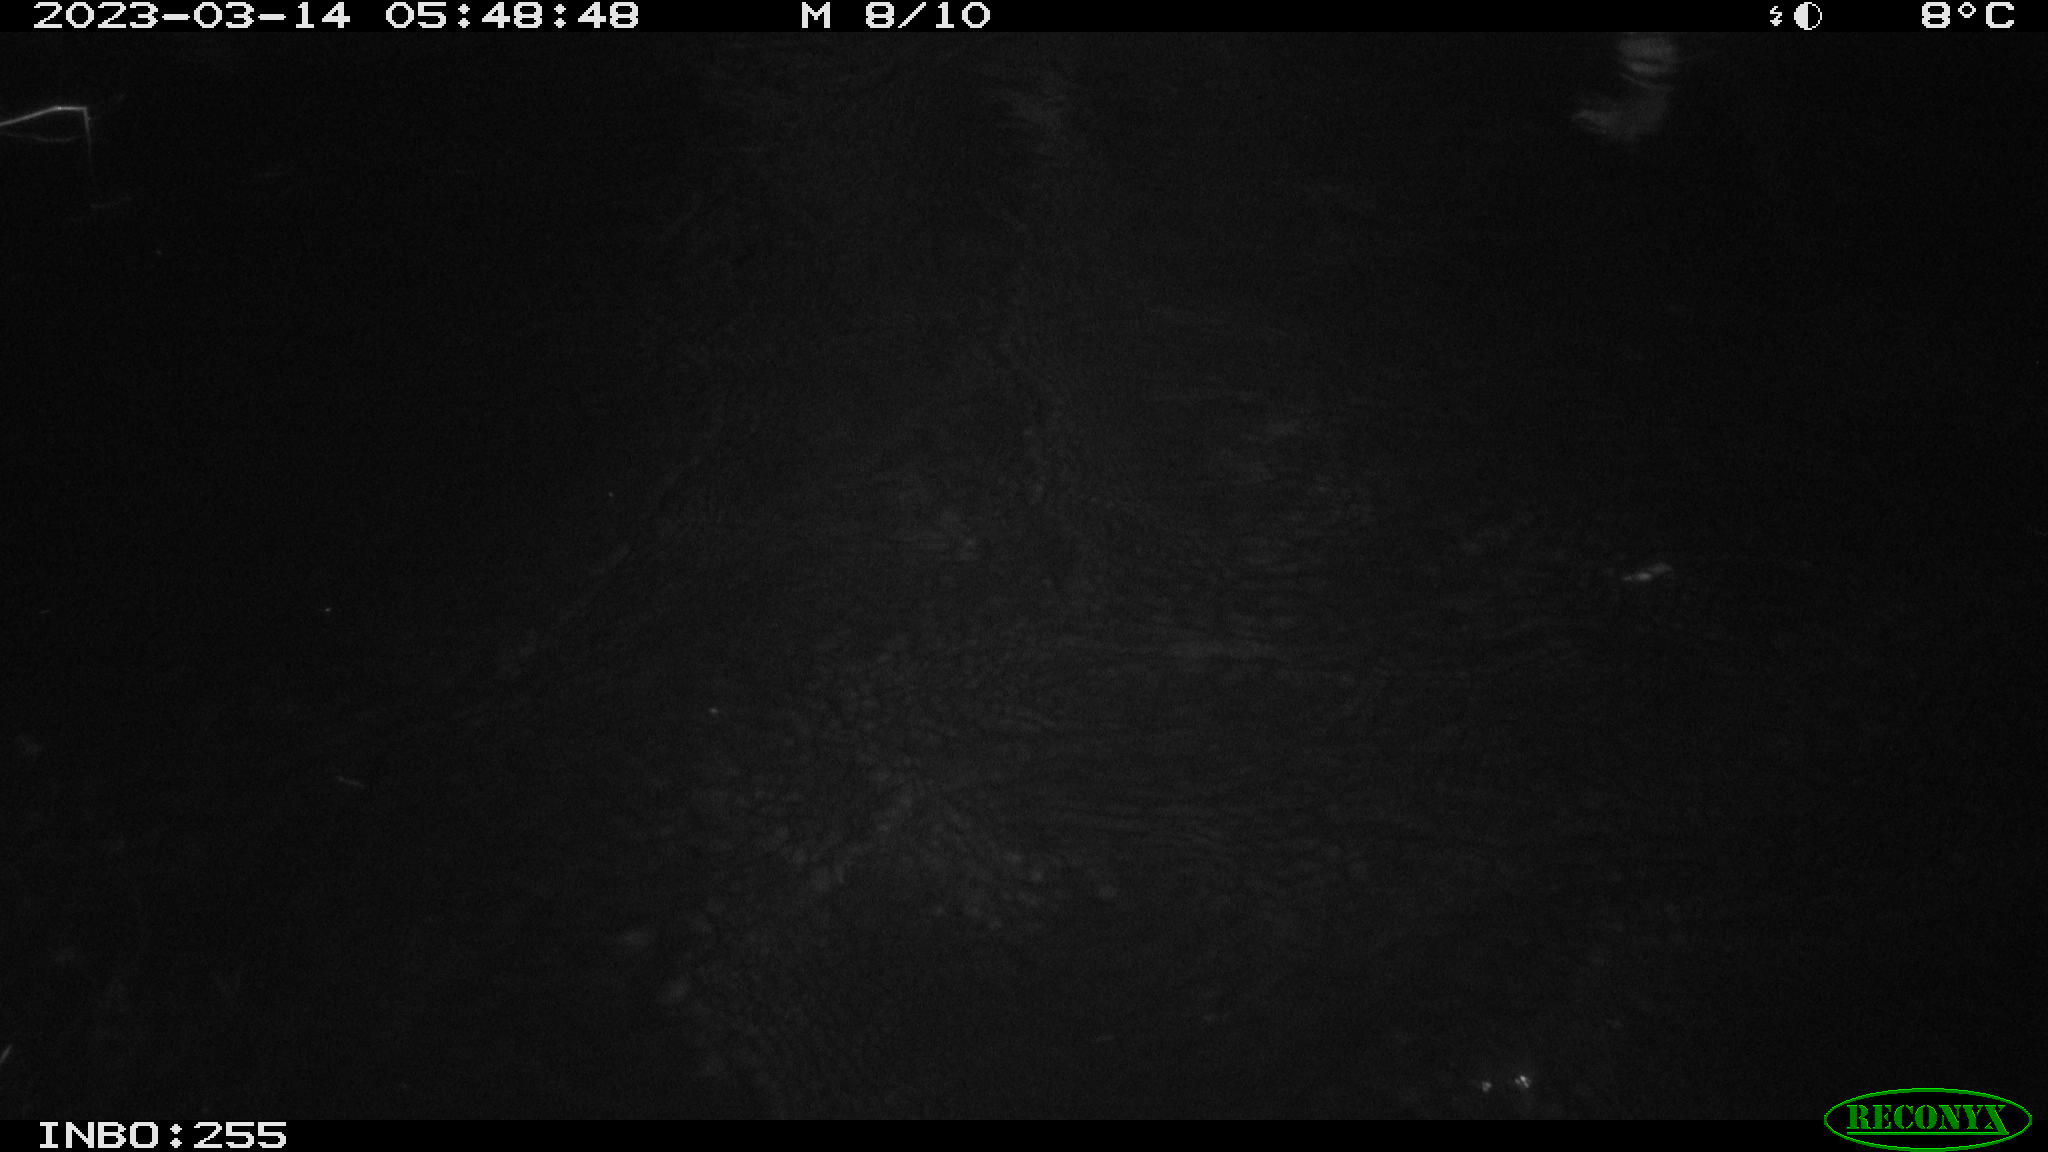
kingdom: Animalia
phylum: Chordata
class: Aves
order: Anseriformes
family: Anatidae
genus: Anas
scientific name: Anas
